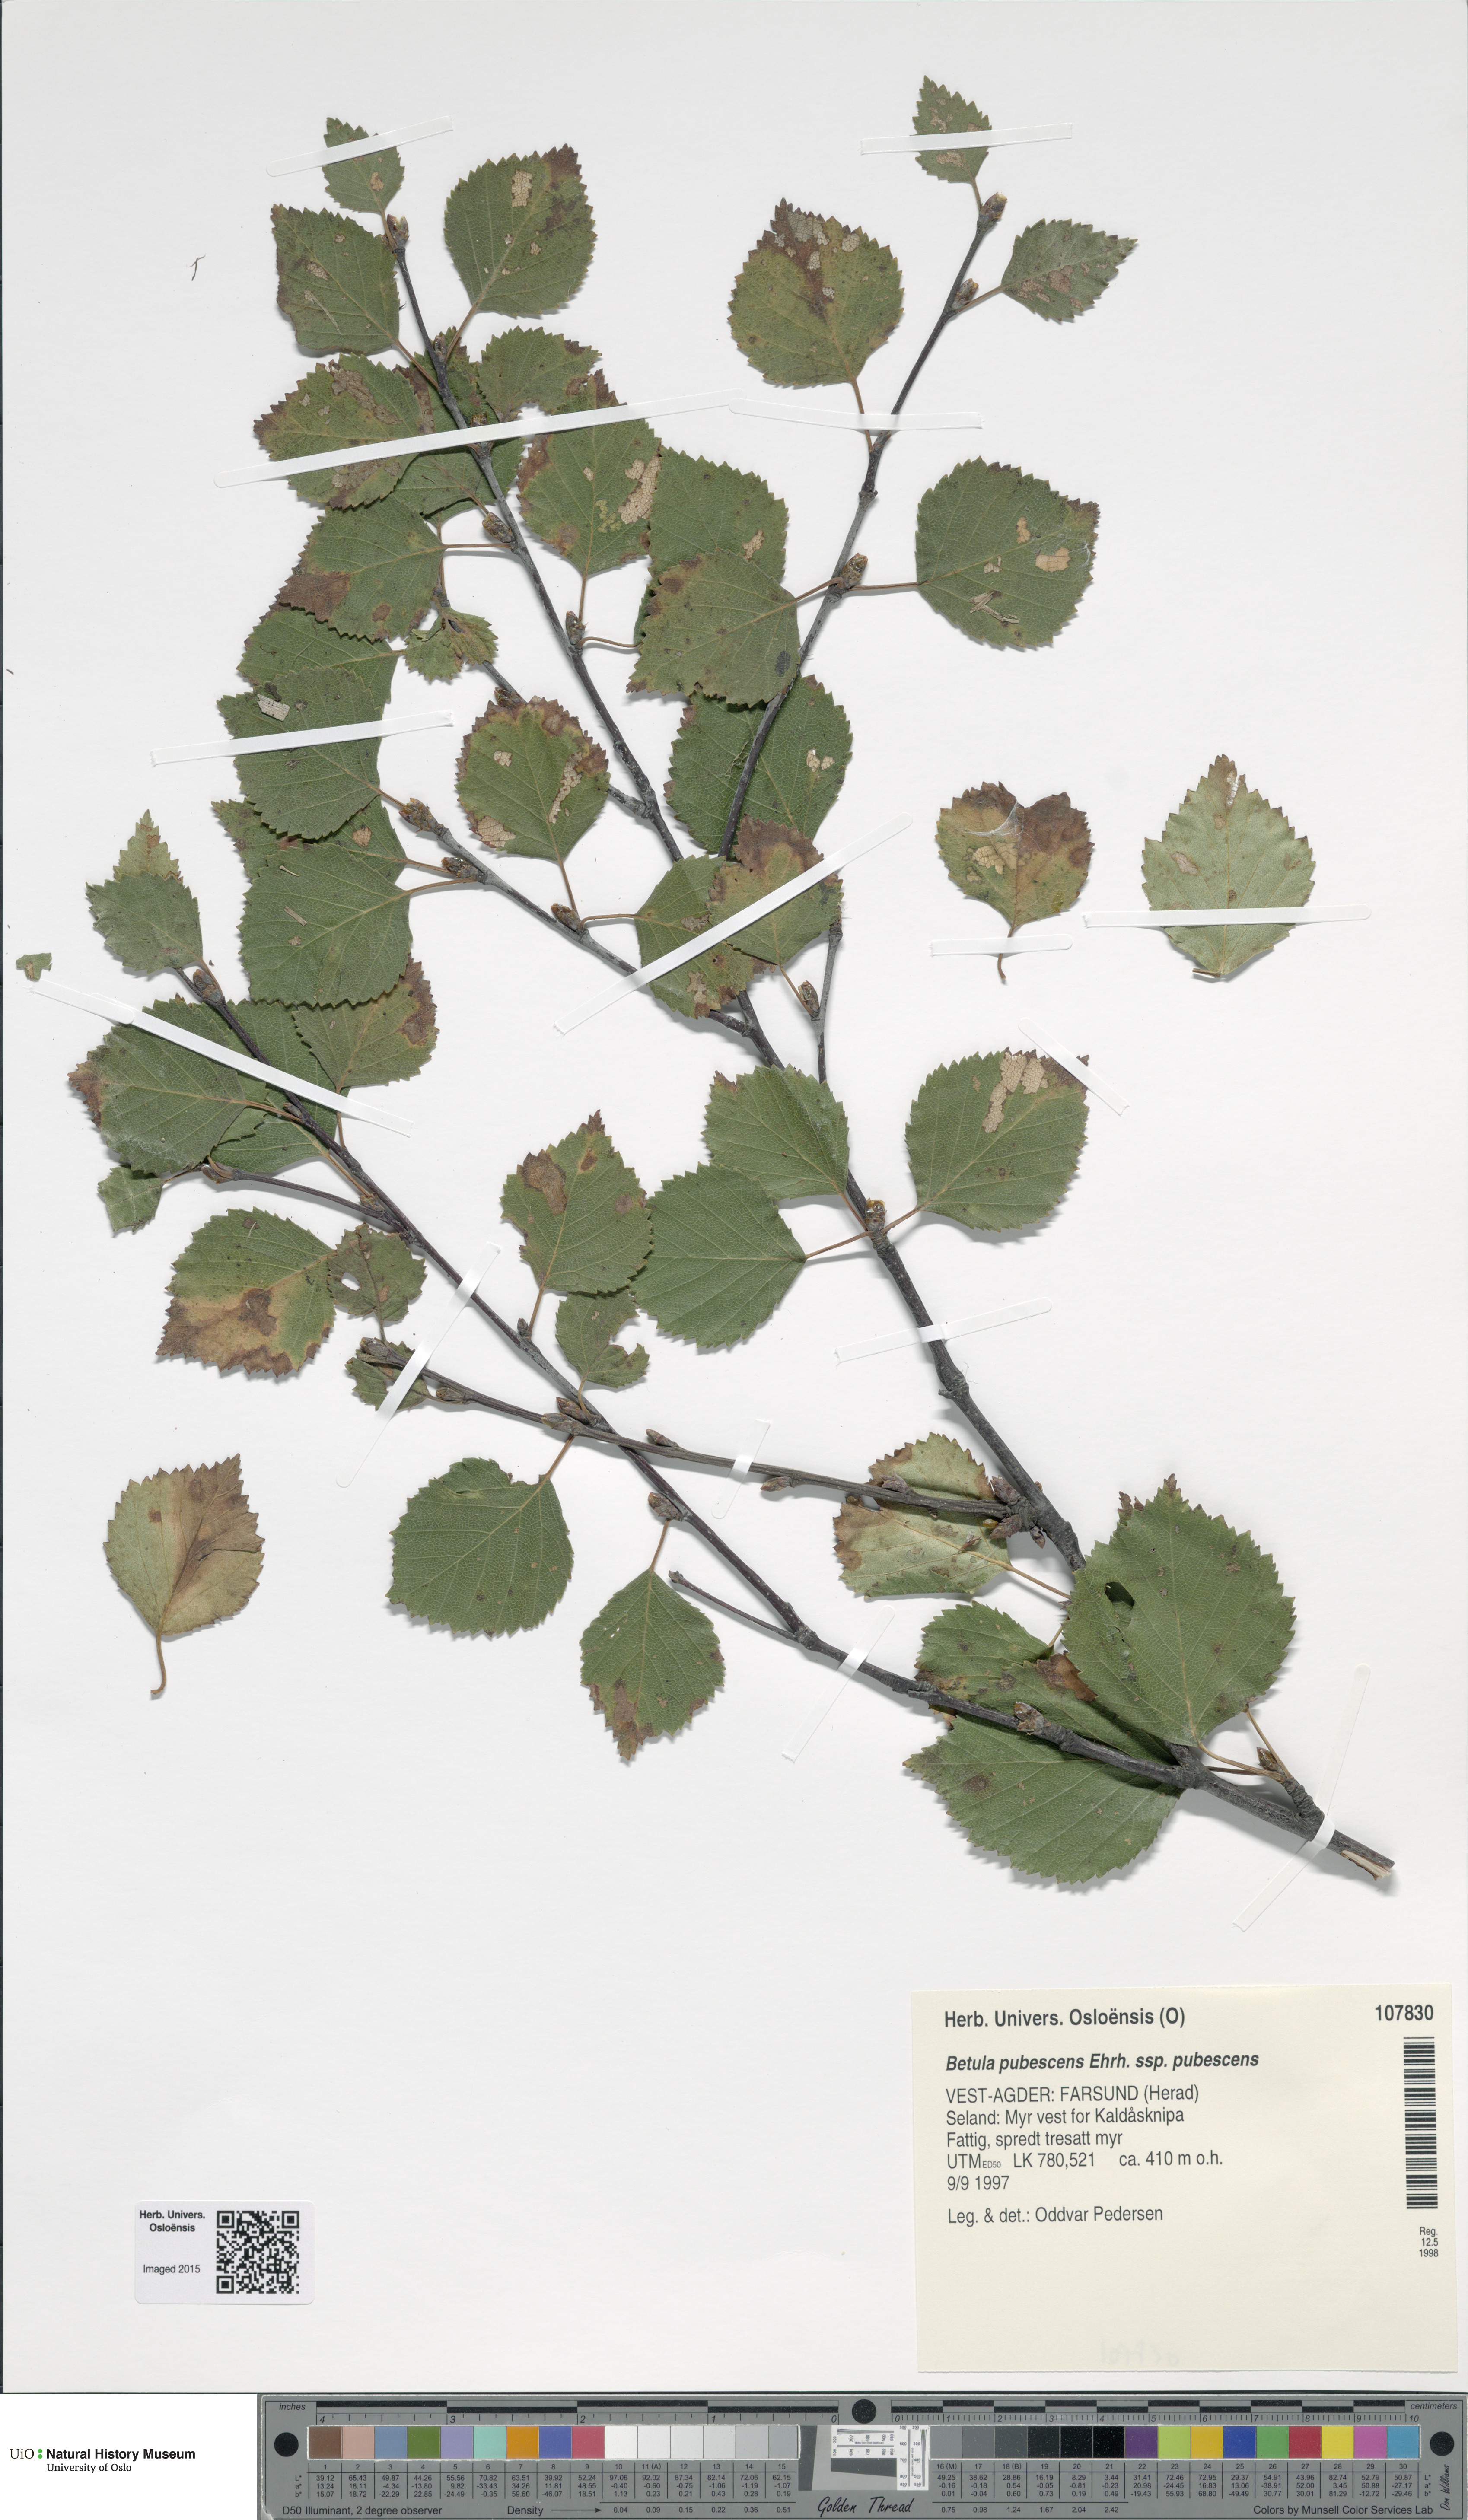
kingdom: Plantae
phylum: Tracheophyta
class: Magnoliopsida
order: Fagales
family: Betulaceae
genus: Betula
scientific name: Betula pubescens
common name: Downy birch
